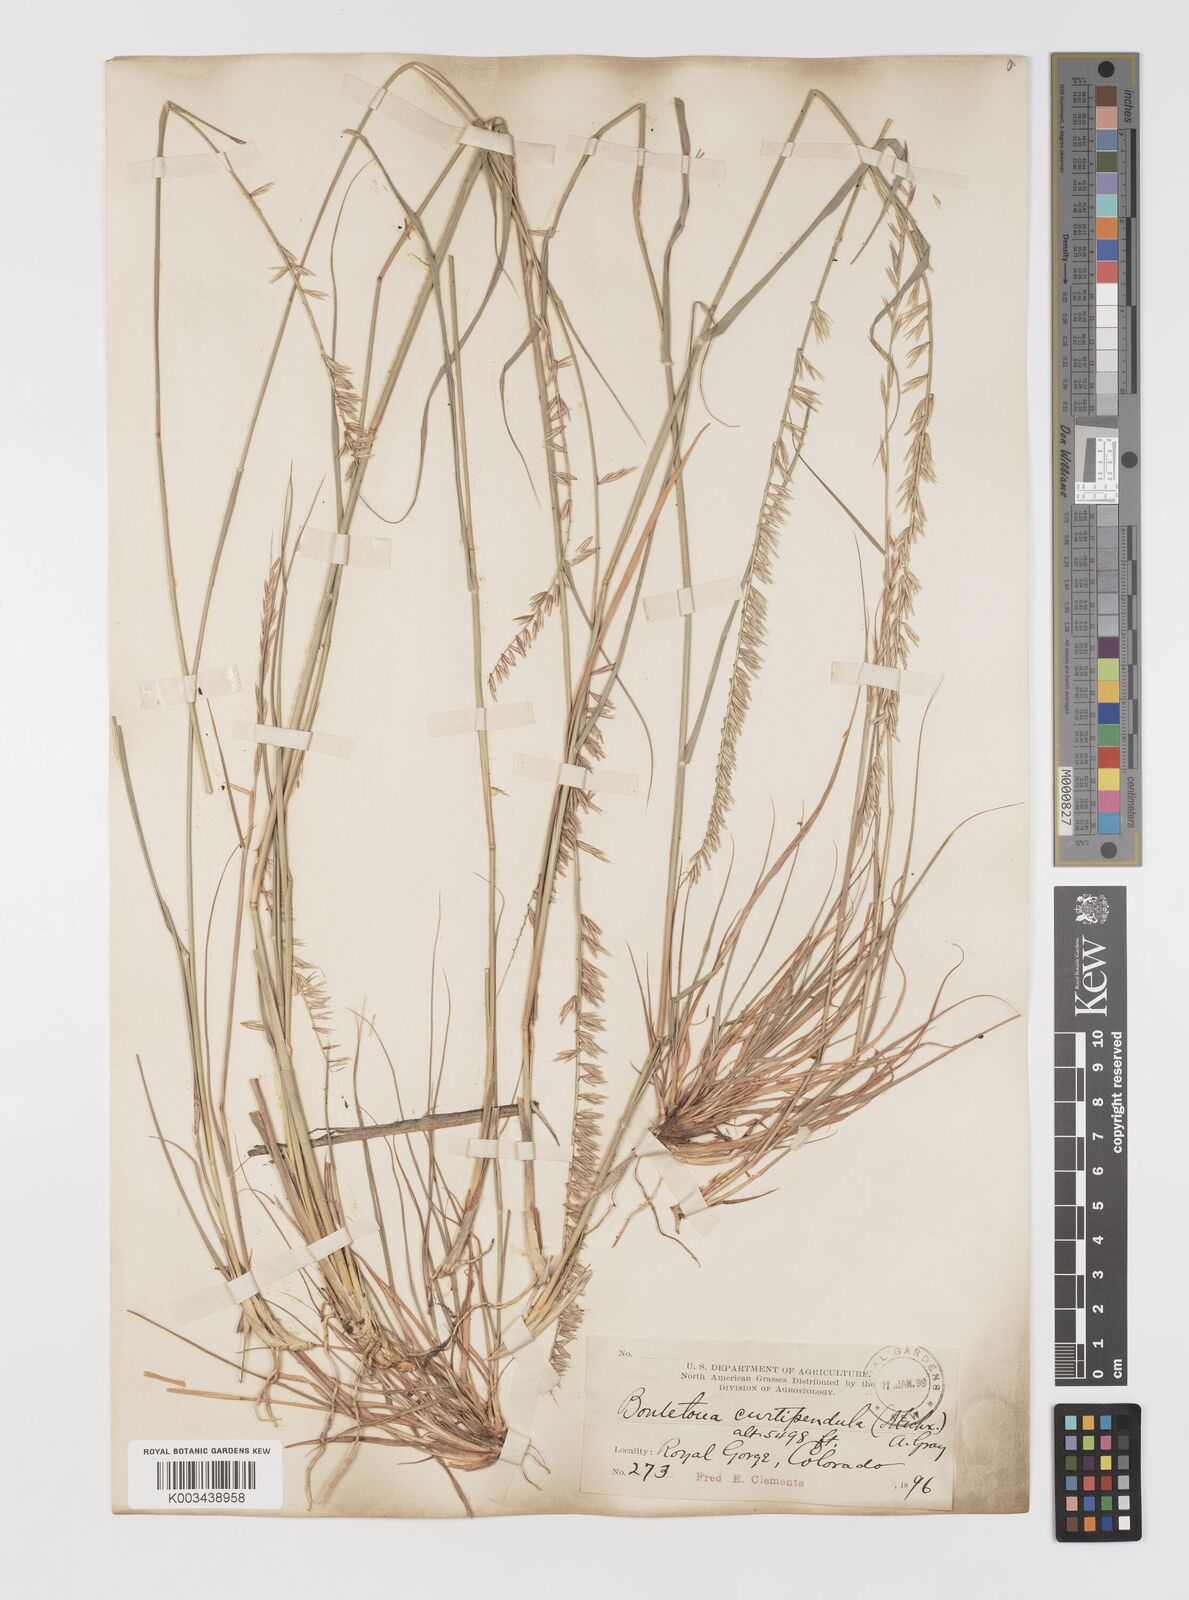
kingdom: Plantae
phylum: Tracheophyta
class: Liliopsida
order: Poales
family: Poaceae
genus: Bouteloua
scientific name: Bouteloua curtipendula
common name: Side-oats grama
